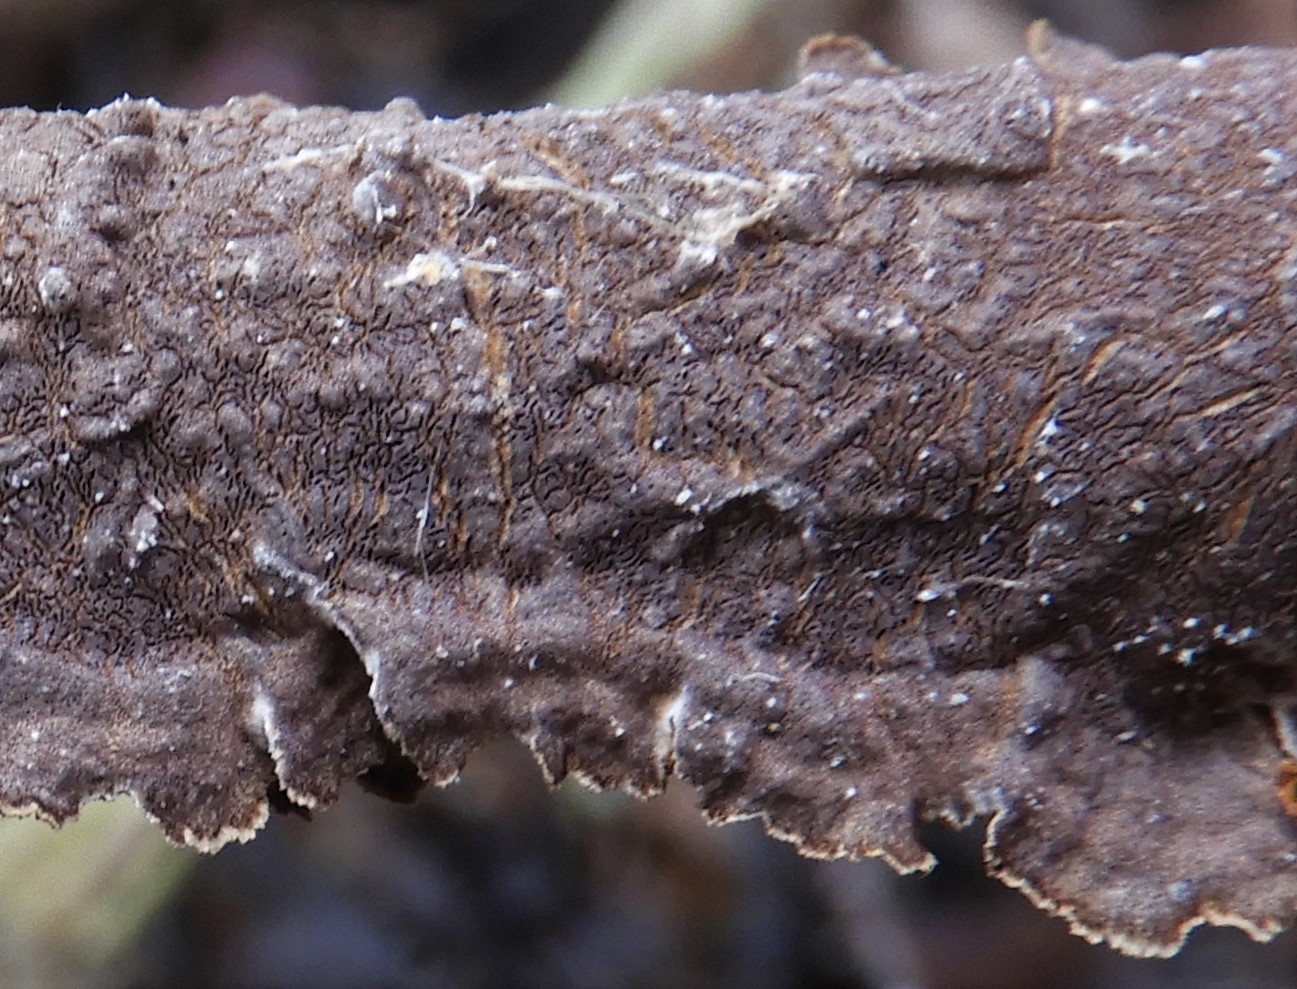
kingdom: Fungi
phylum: Basidiomycota
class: Agaricomycetes
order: Hymenochaetales
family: Hymenochaetaceae
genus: Hydnoporia
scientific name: Hydnoporia tabacina
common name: tobaksbrun ruslædersvamp
